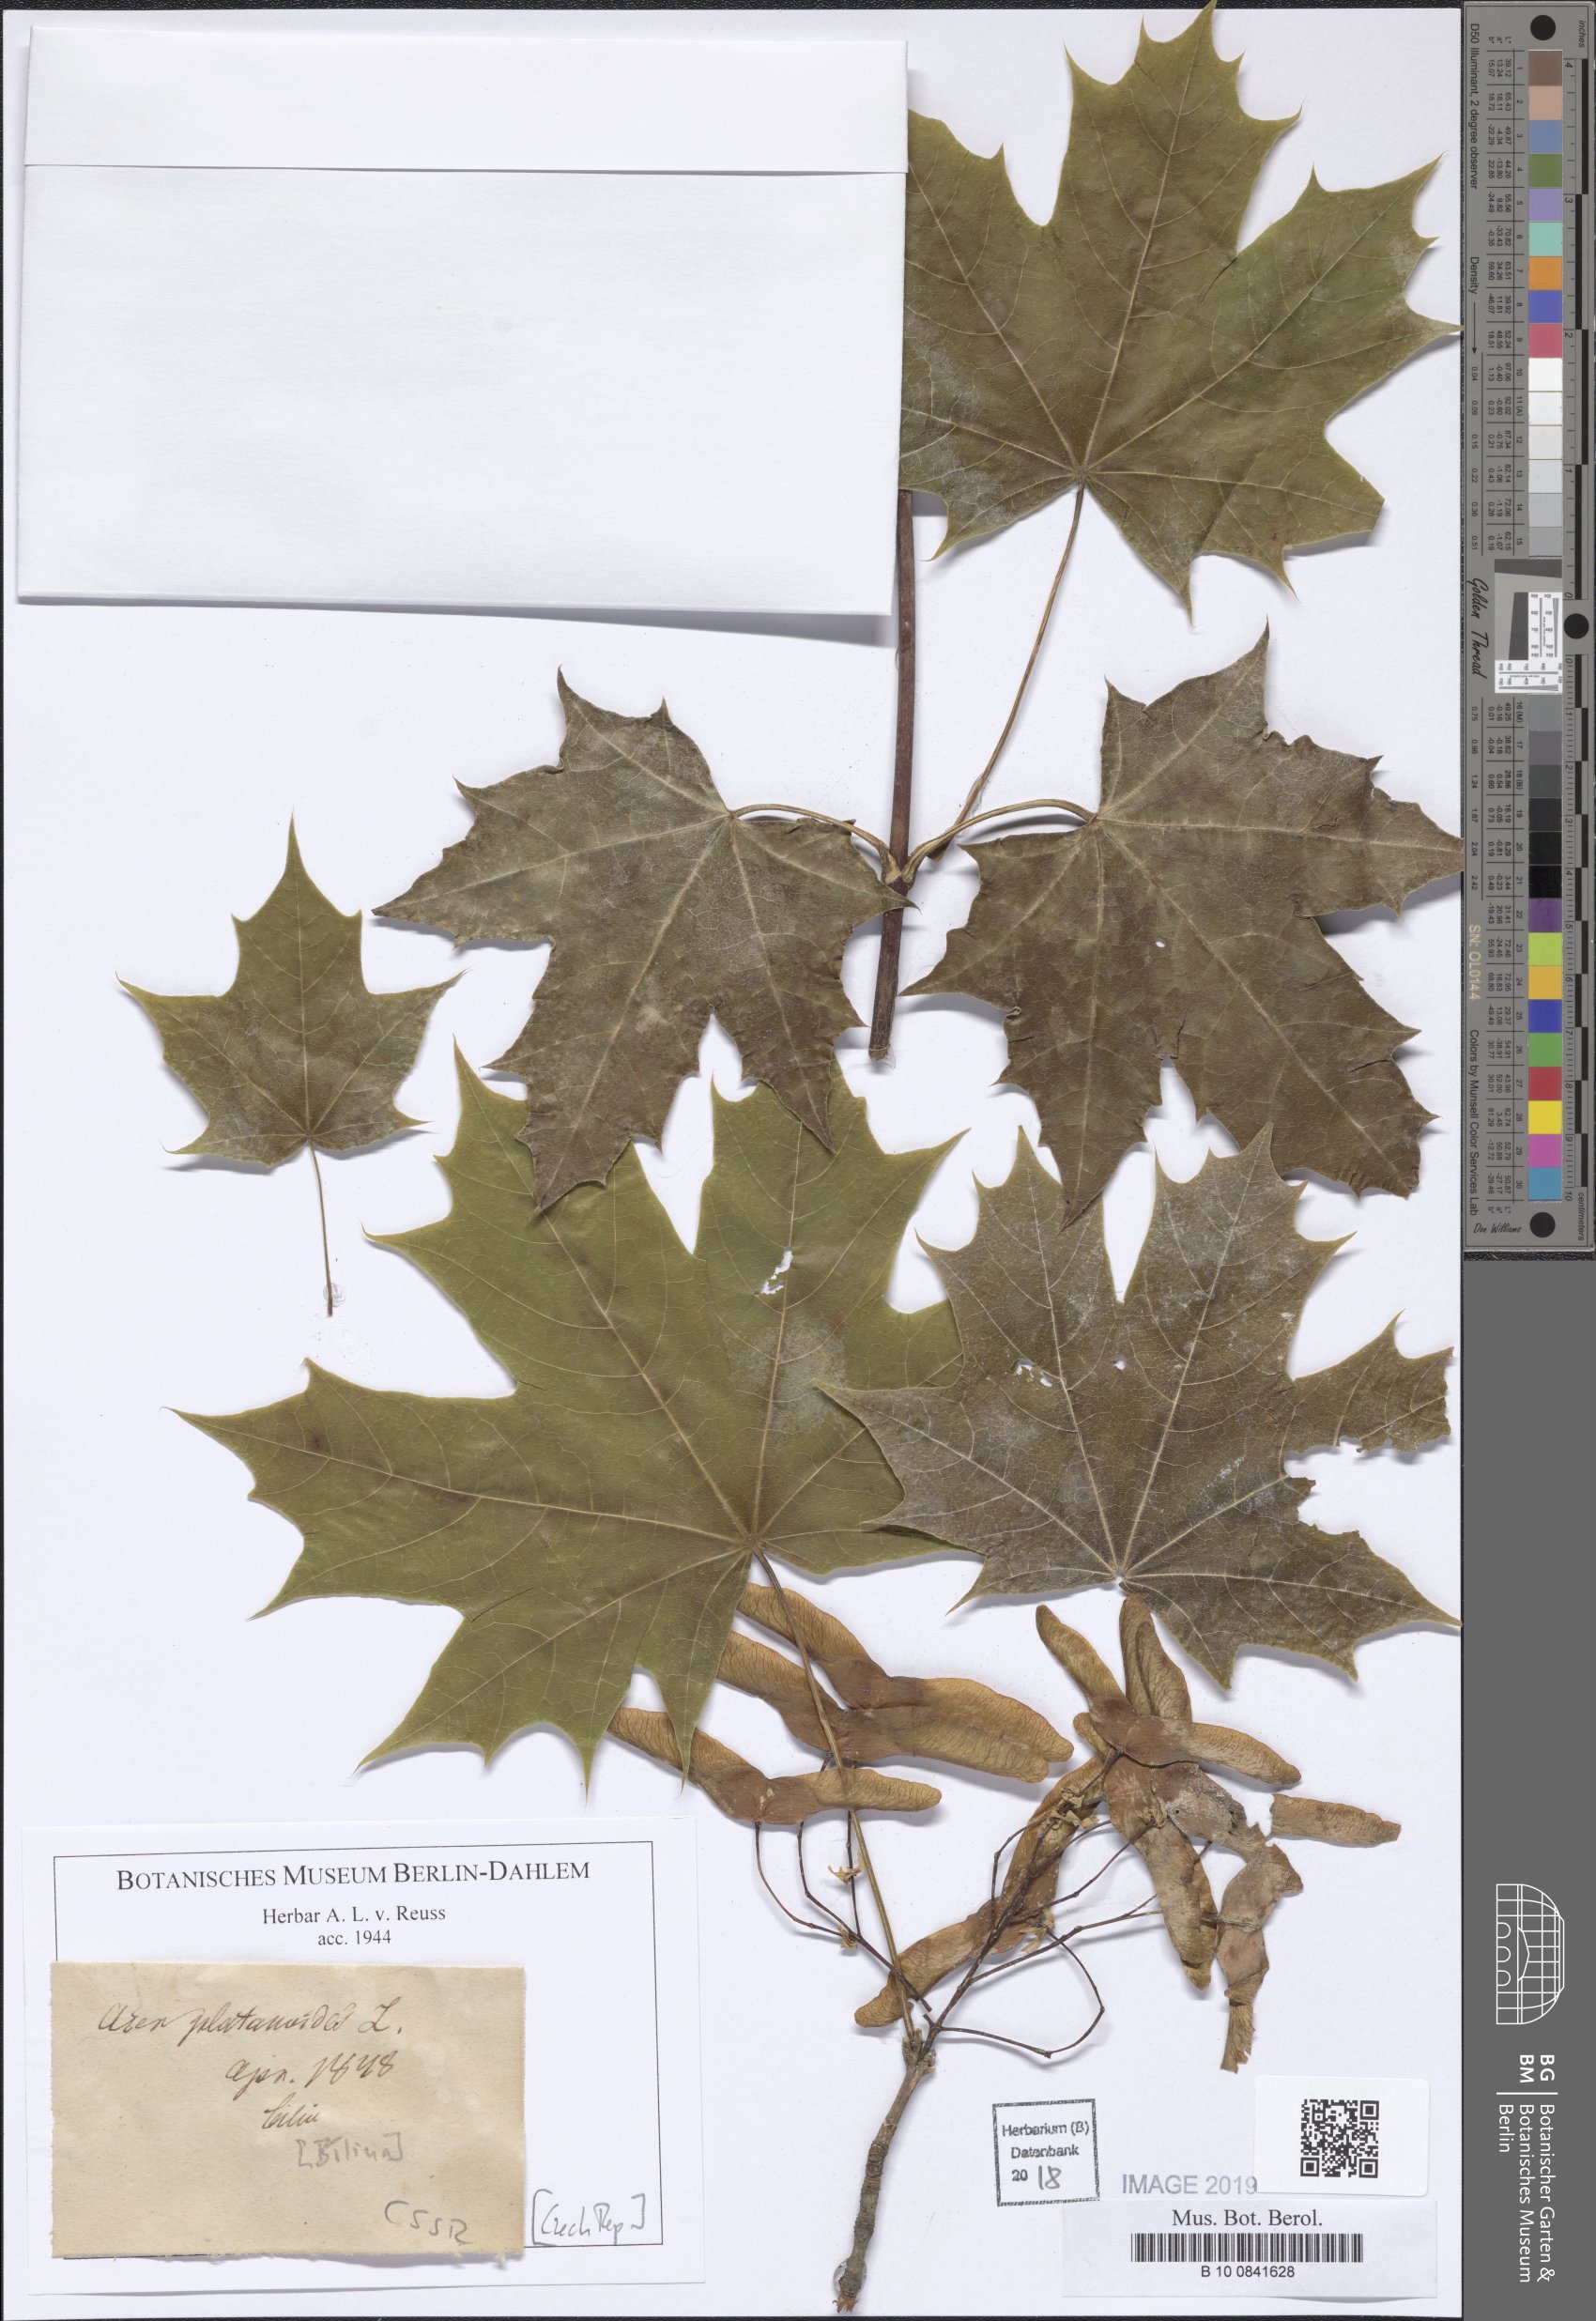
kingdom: Plantae
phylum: Tracheophyta
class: Magnoliopsida
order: Sapindales
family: Sapindaceae
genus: Acer
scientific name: Acer platanoides
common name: Norway maple
